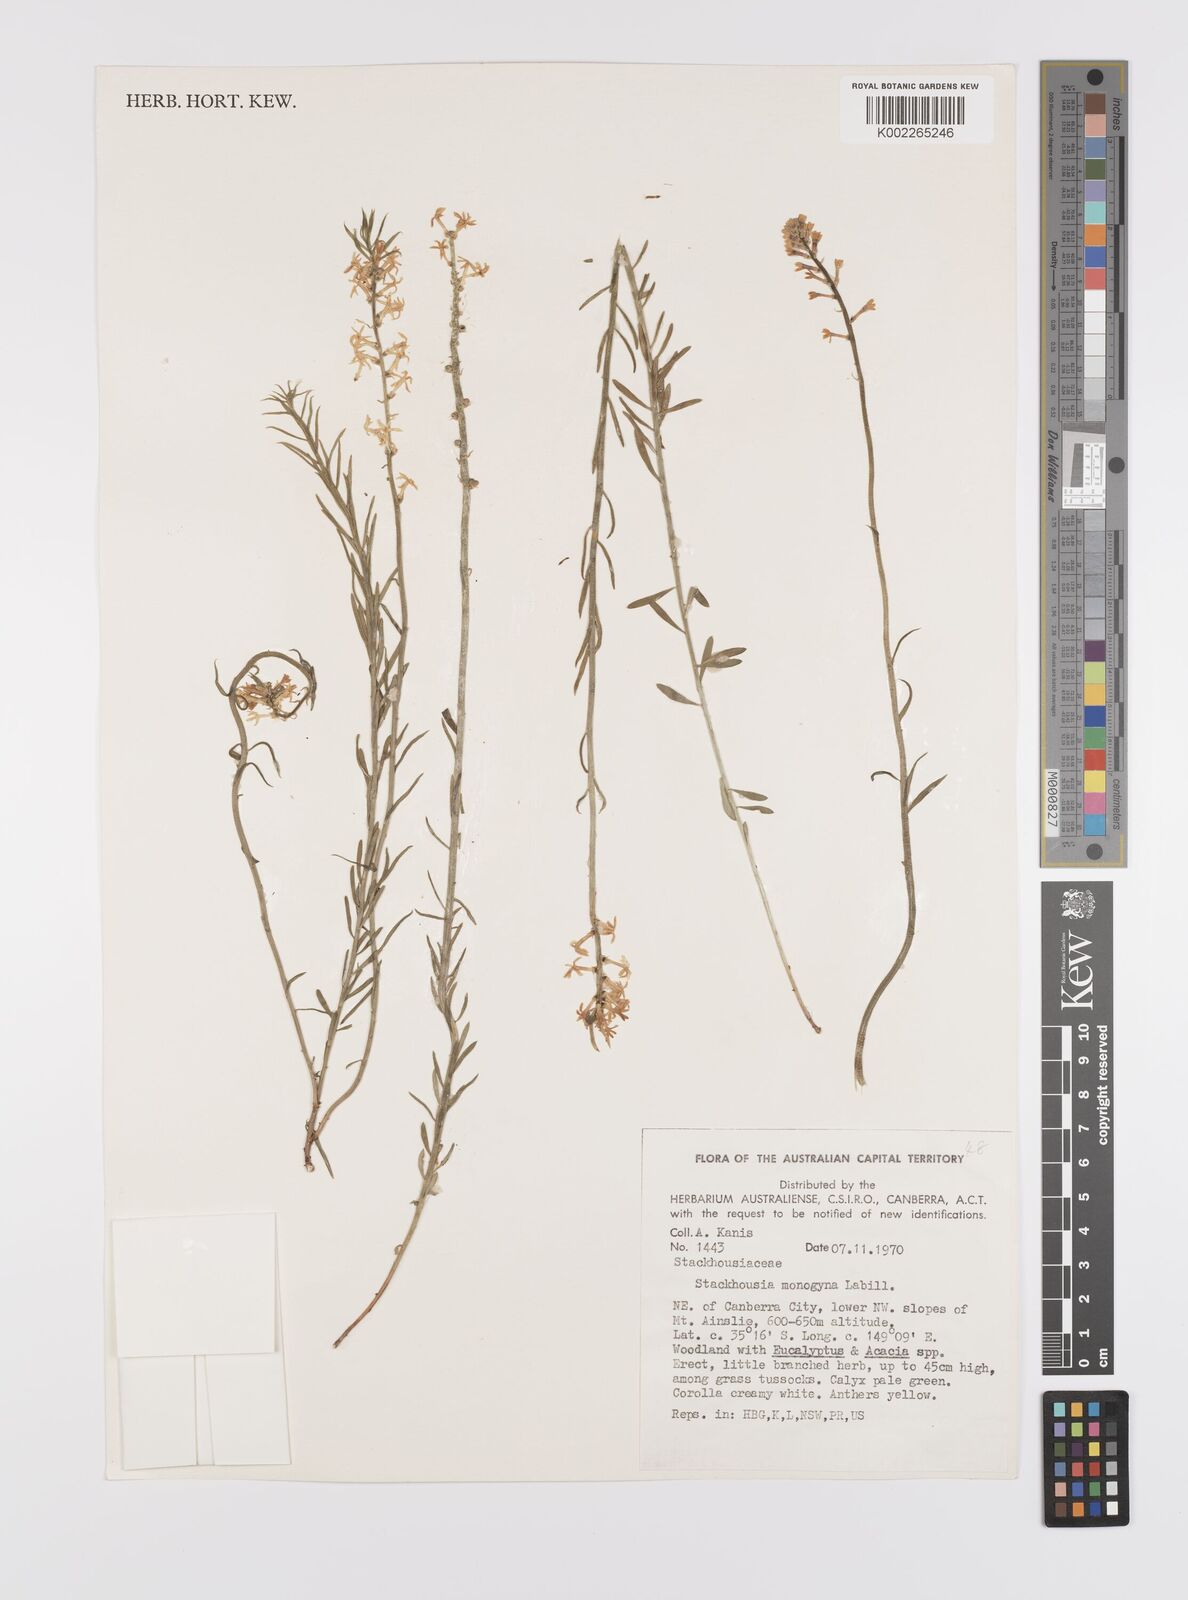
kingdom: Plantae
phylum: Tracheophyta
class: Magnoliopsida
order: Celastrales
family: Celastraceae
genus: Stackhousia
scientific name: Stackhousia monogyna
